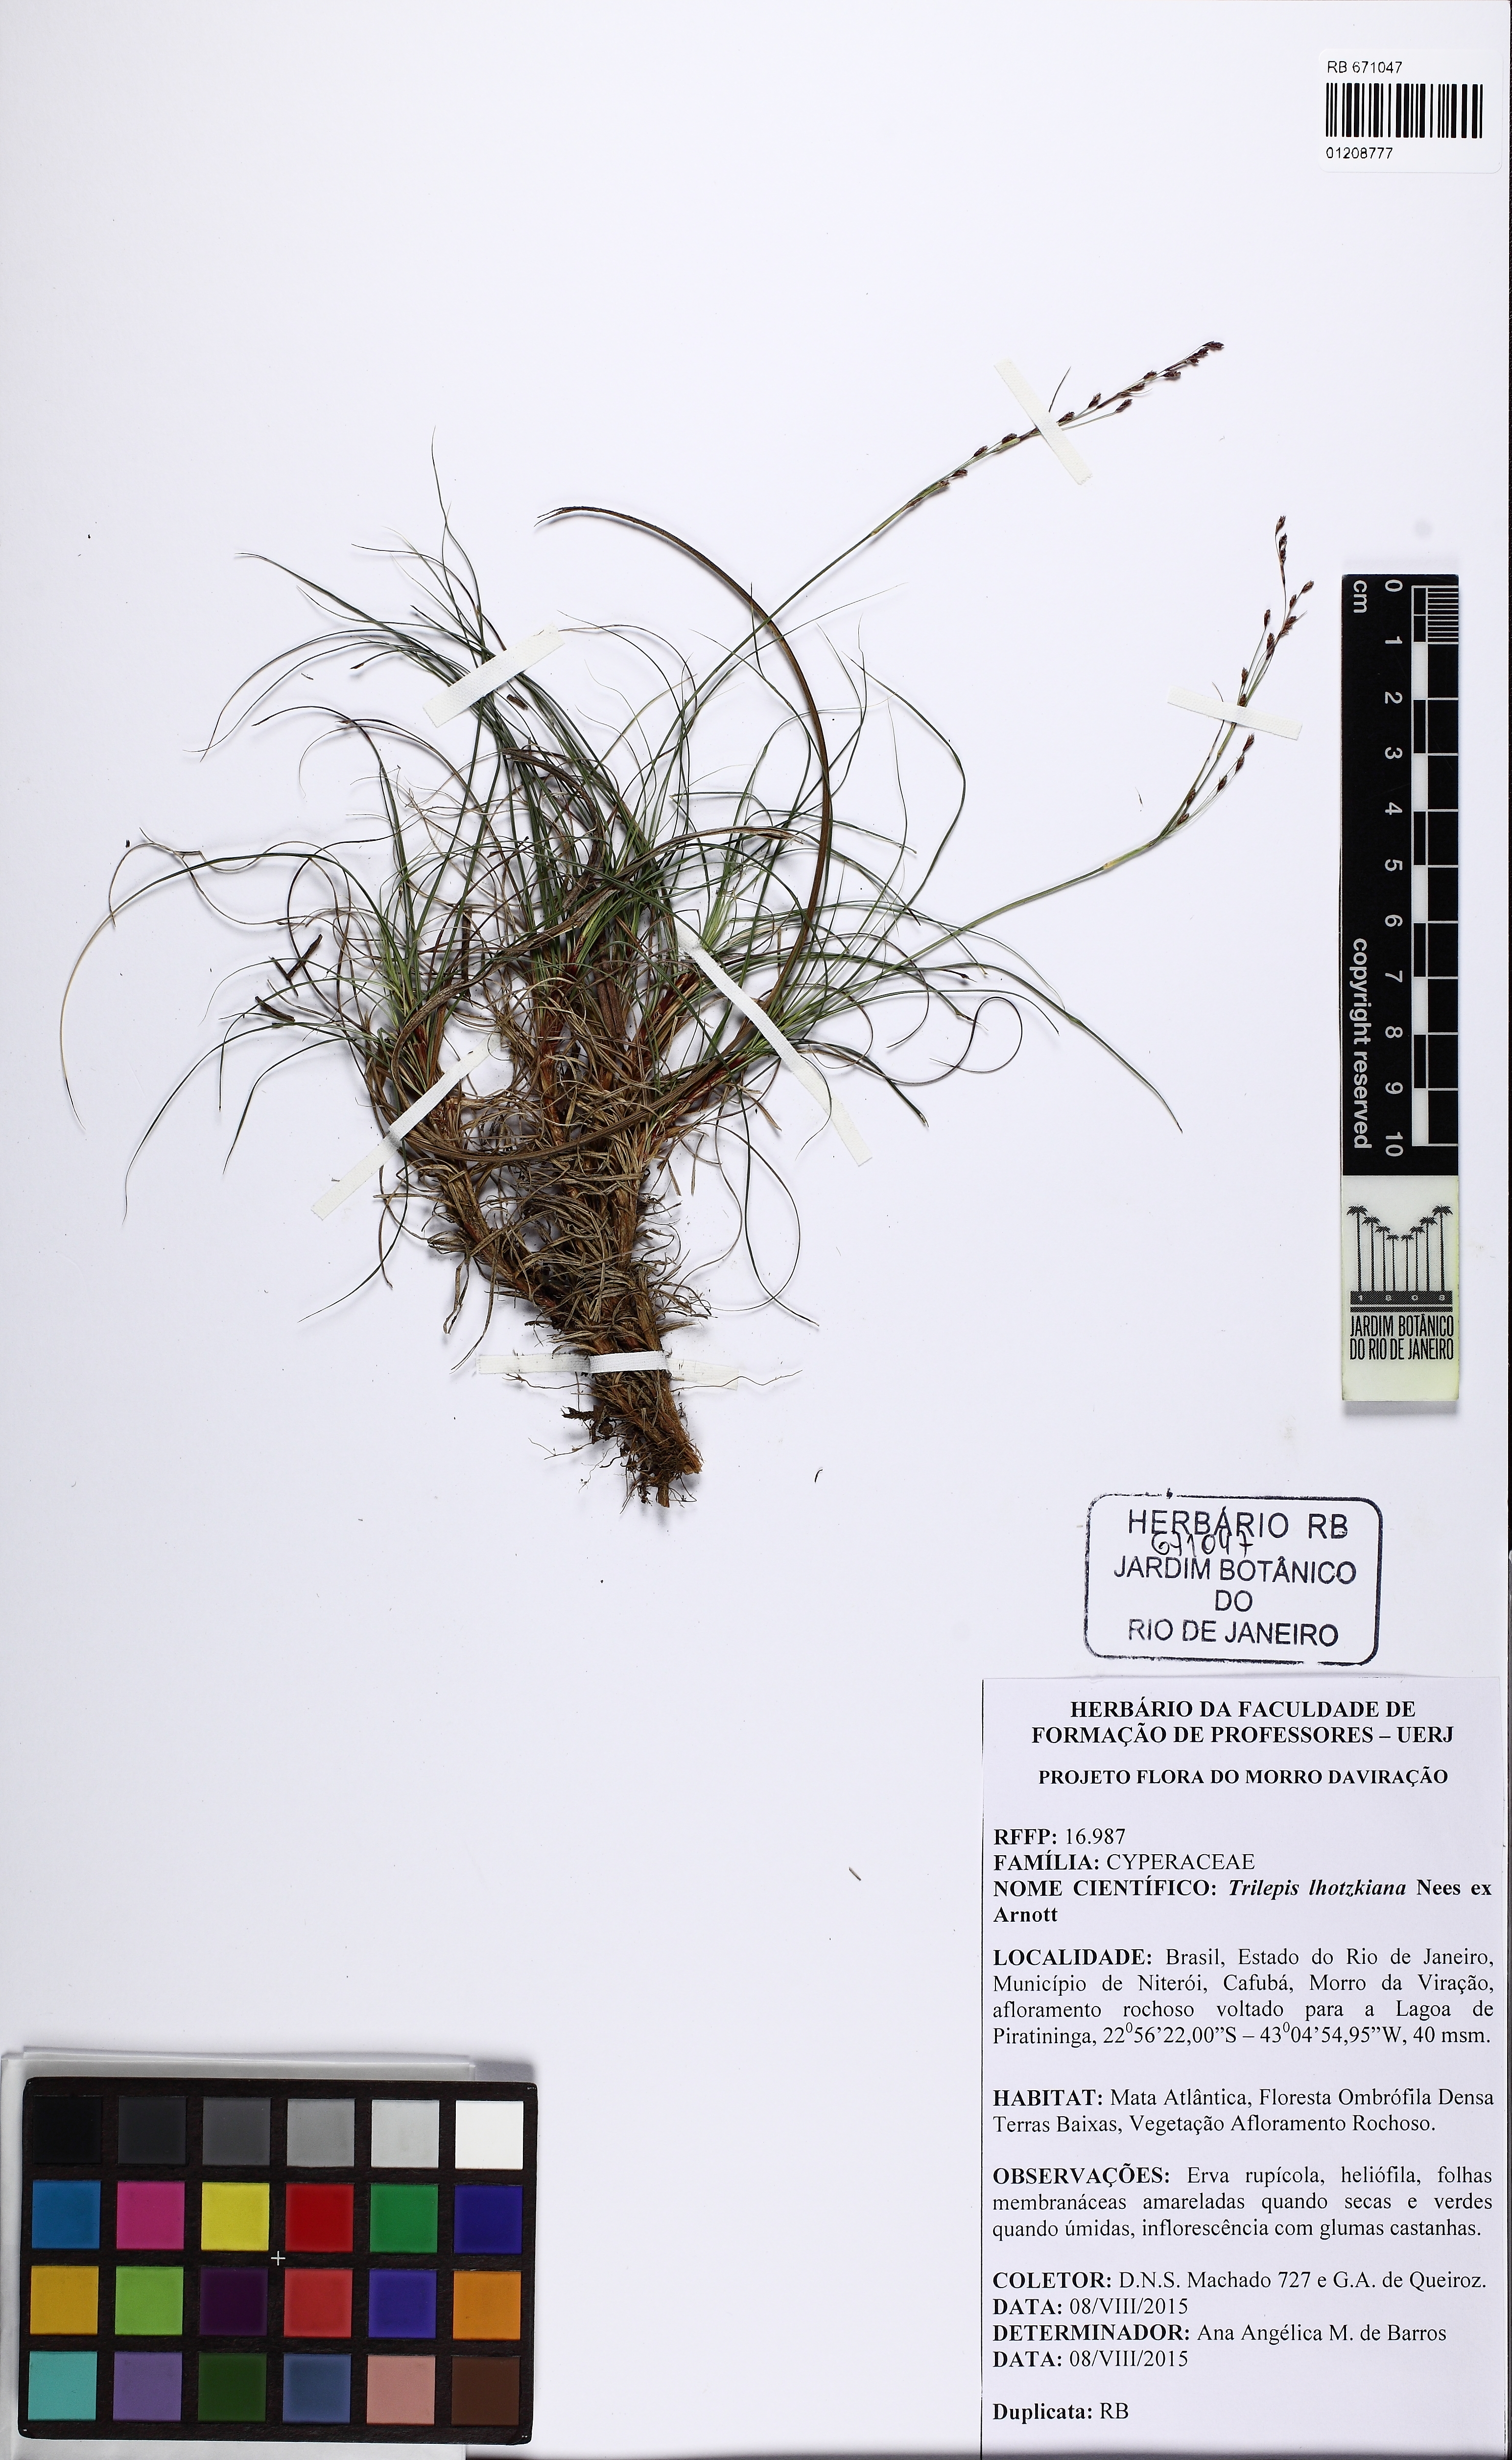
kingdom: Plantae
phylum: Tracheophyta
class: Liliopsida
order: Poales
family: Cyperaceae
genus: Trilepis
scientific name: Trilepis lhotzkiana
